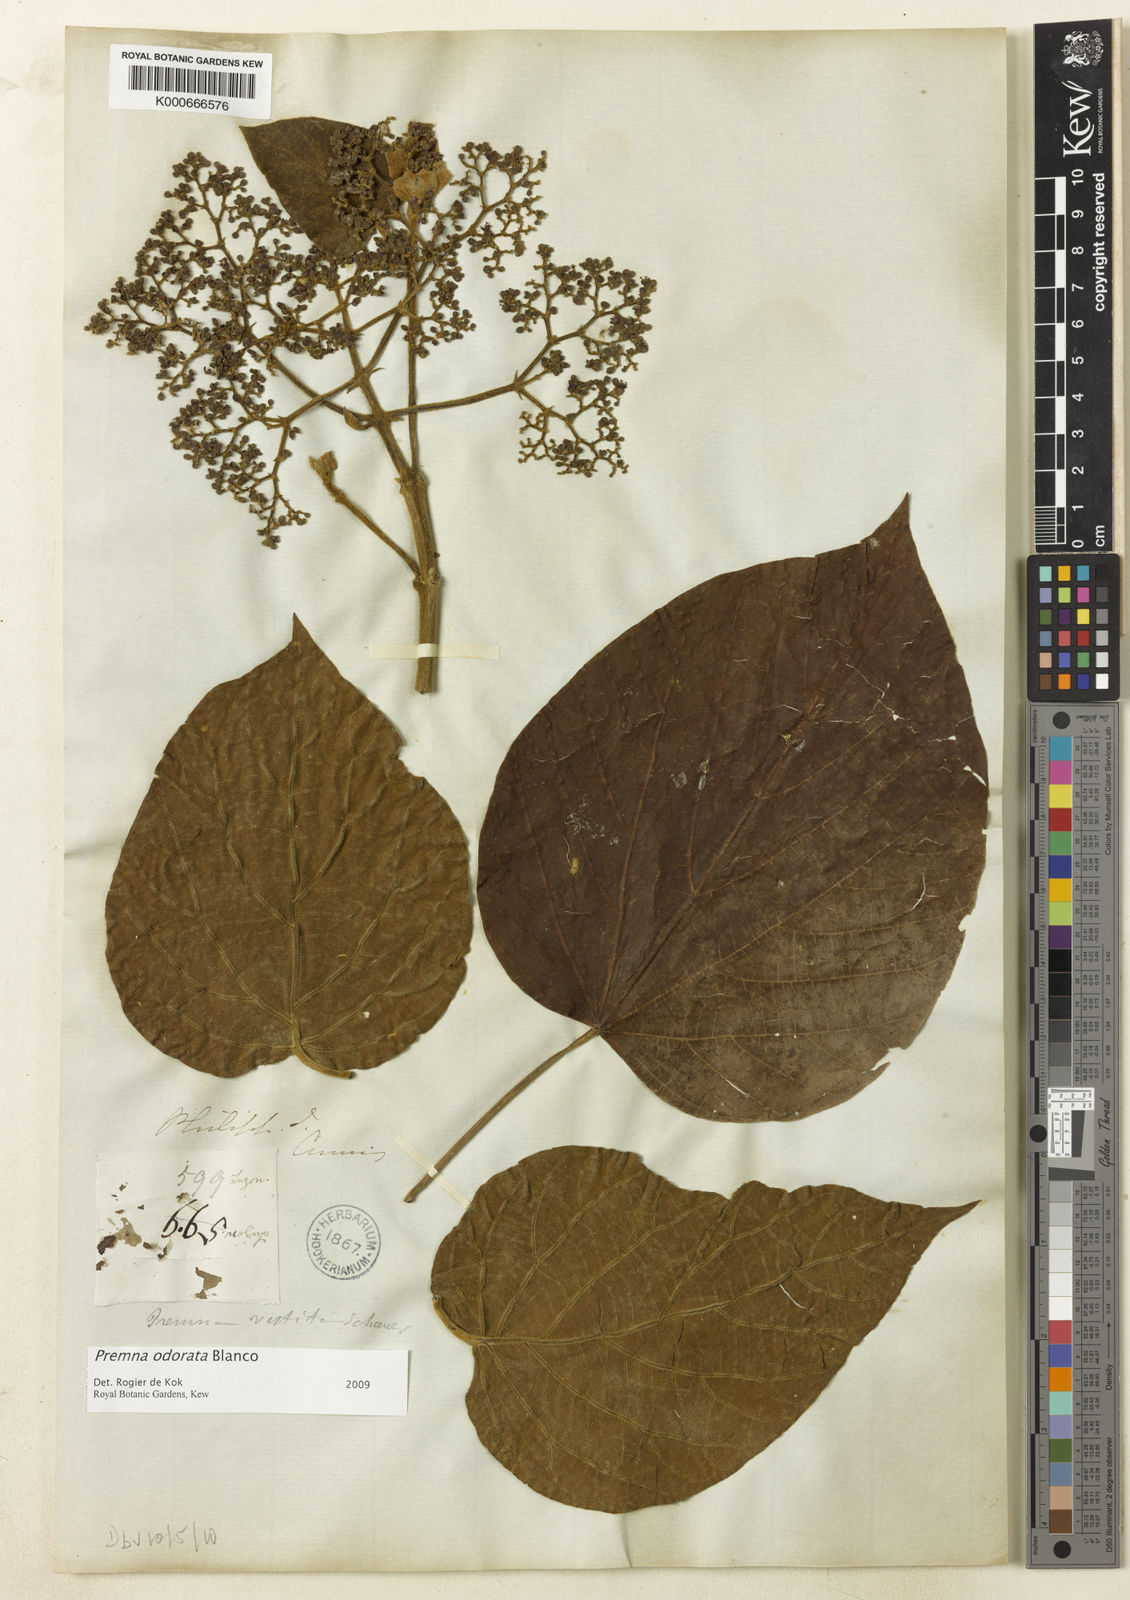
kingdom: Plantae
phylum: Tracheophyta
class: Magnoliopsida
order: Lamiales
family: Lamiaceae
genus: Premna
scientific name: Premna odorata
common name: Fragrant premna
